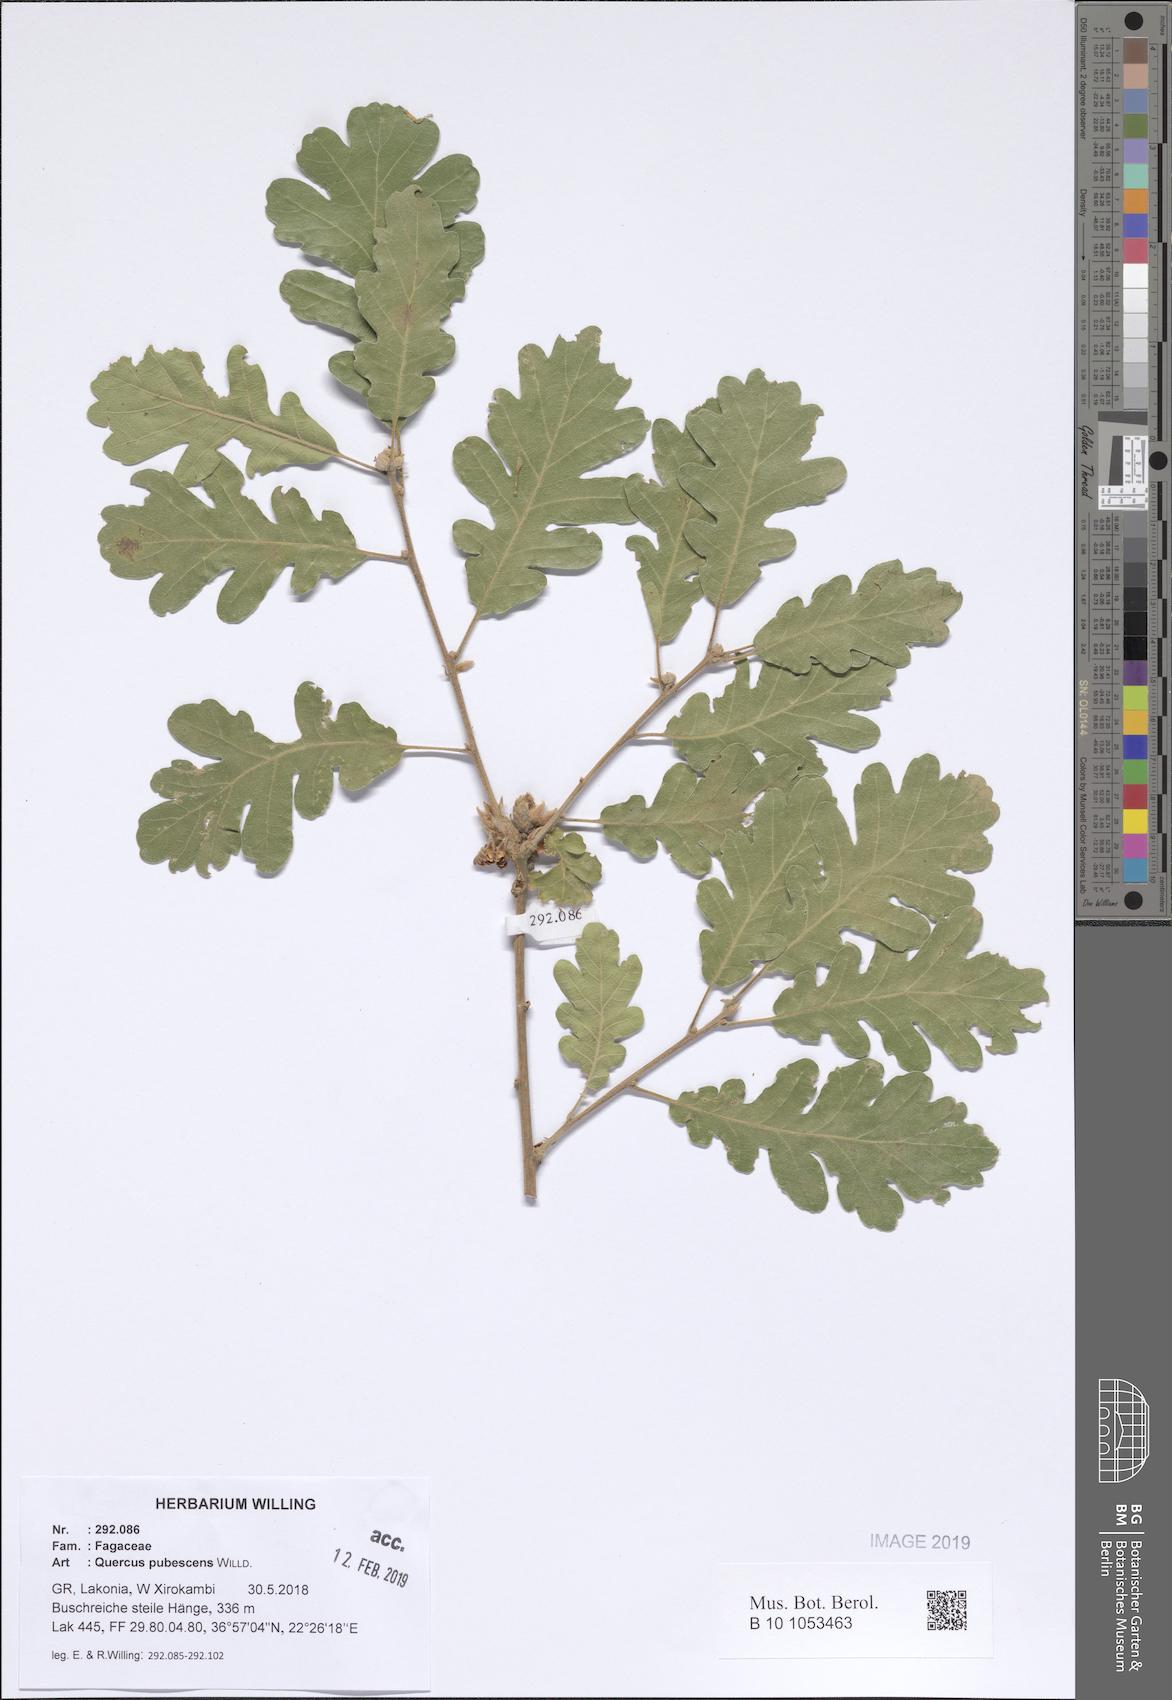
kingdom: Plantae
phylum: Tracheophyta
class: Magnoliopsida
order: Fagales
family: Fagaceae
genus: Quercus
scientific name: Quercus pubescens
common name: Downy oak
